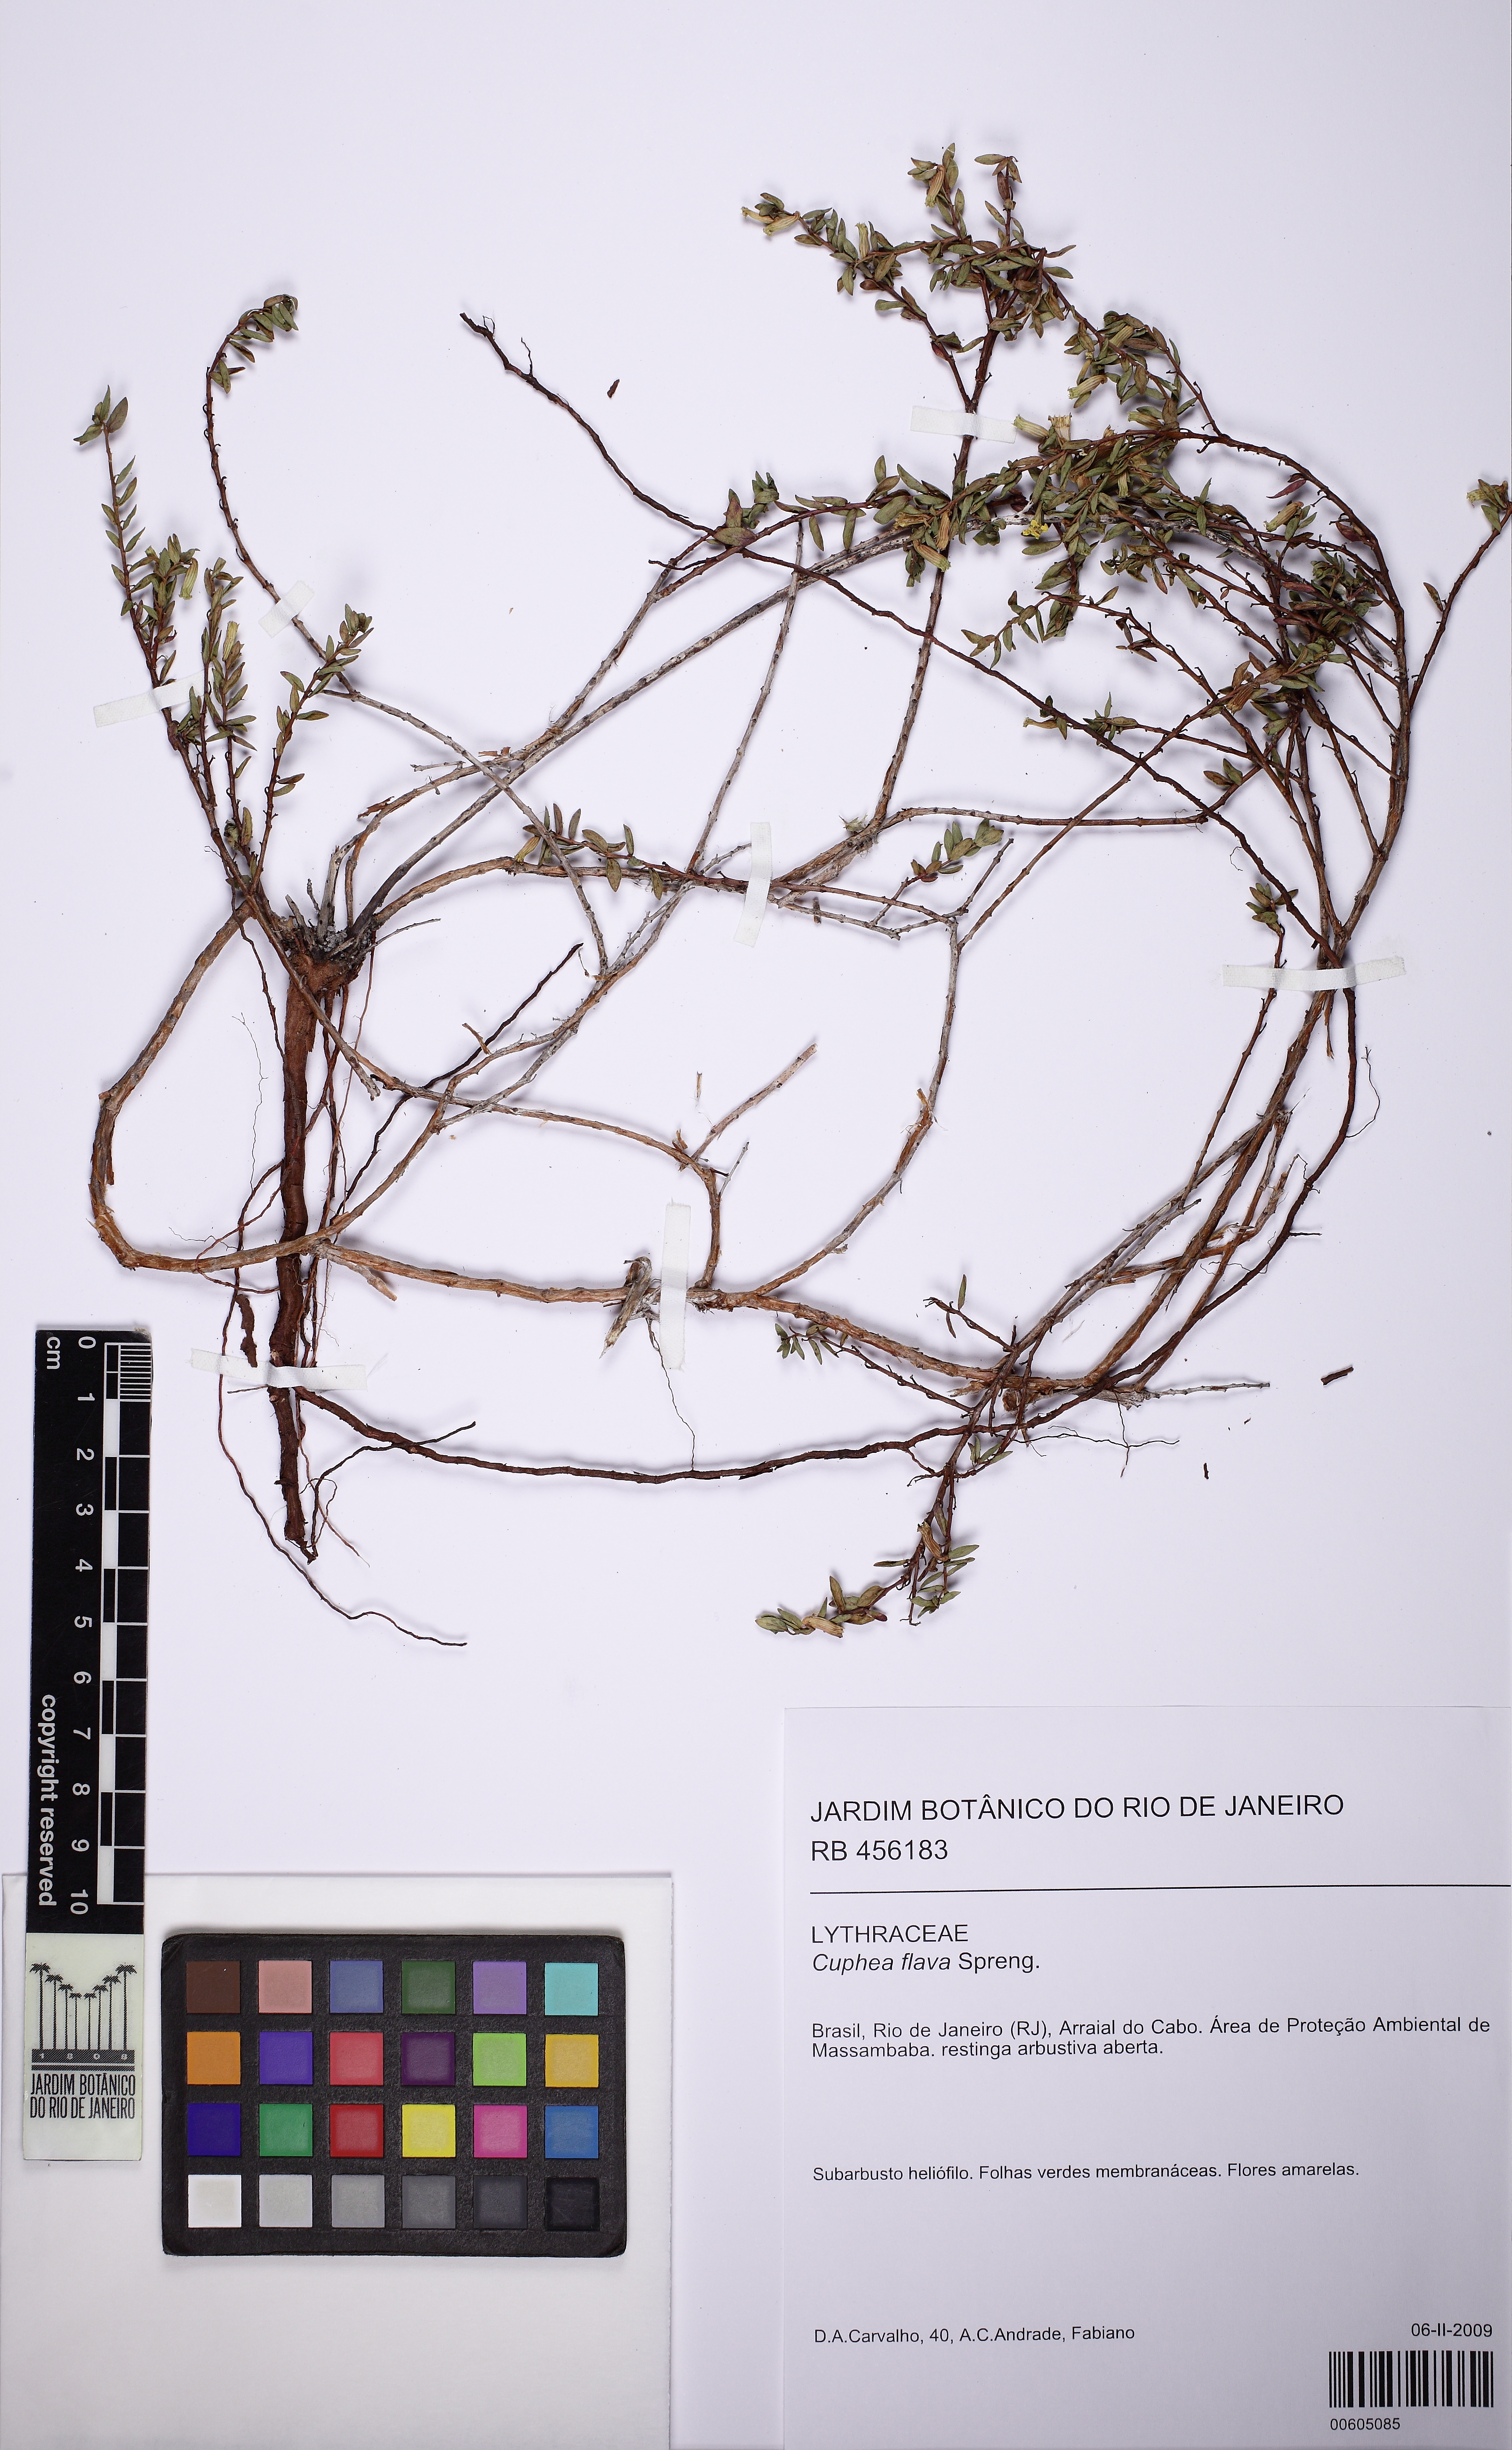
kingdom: Plantae
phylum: Tracheophyta
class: Magnoliopsida
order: Myrtales
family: Lythraceae
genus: Cuphea
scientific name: Cuphea flava
